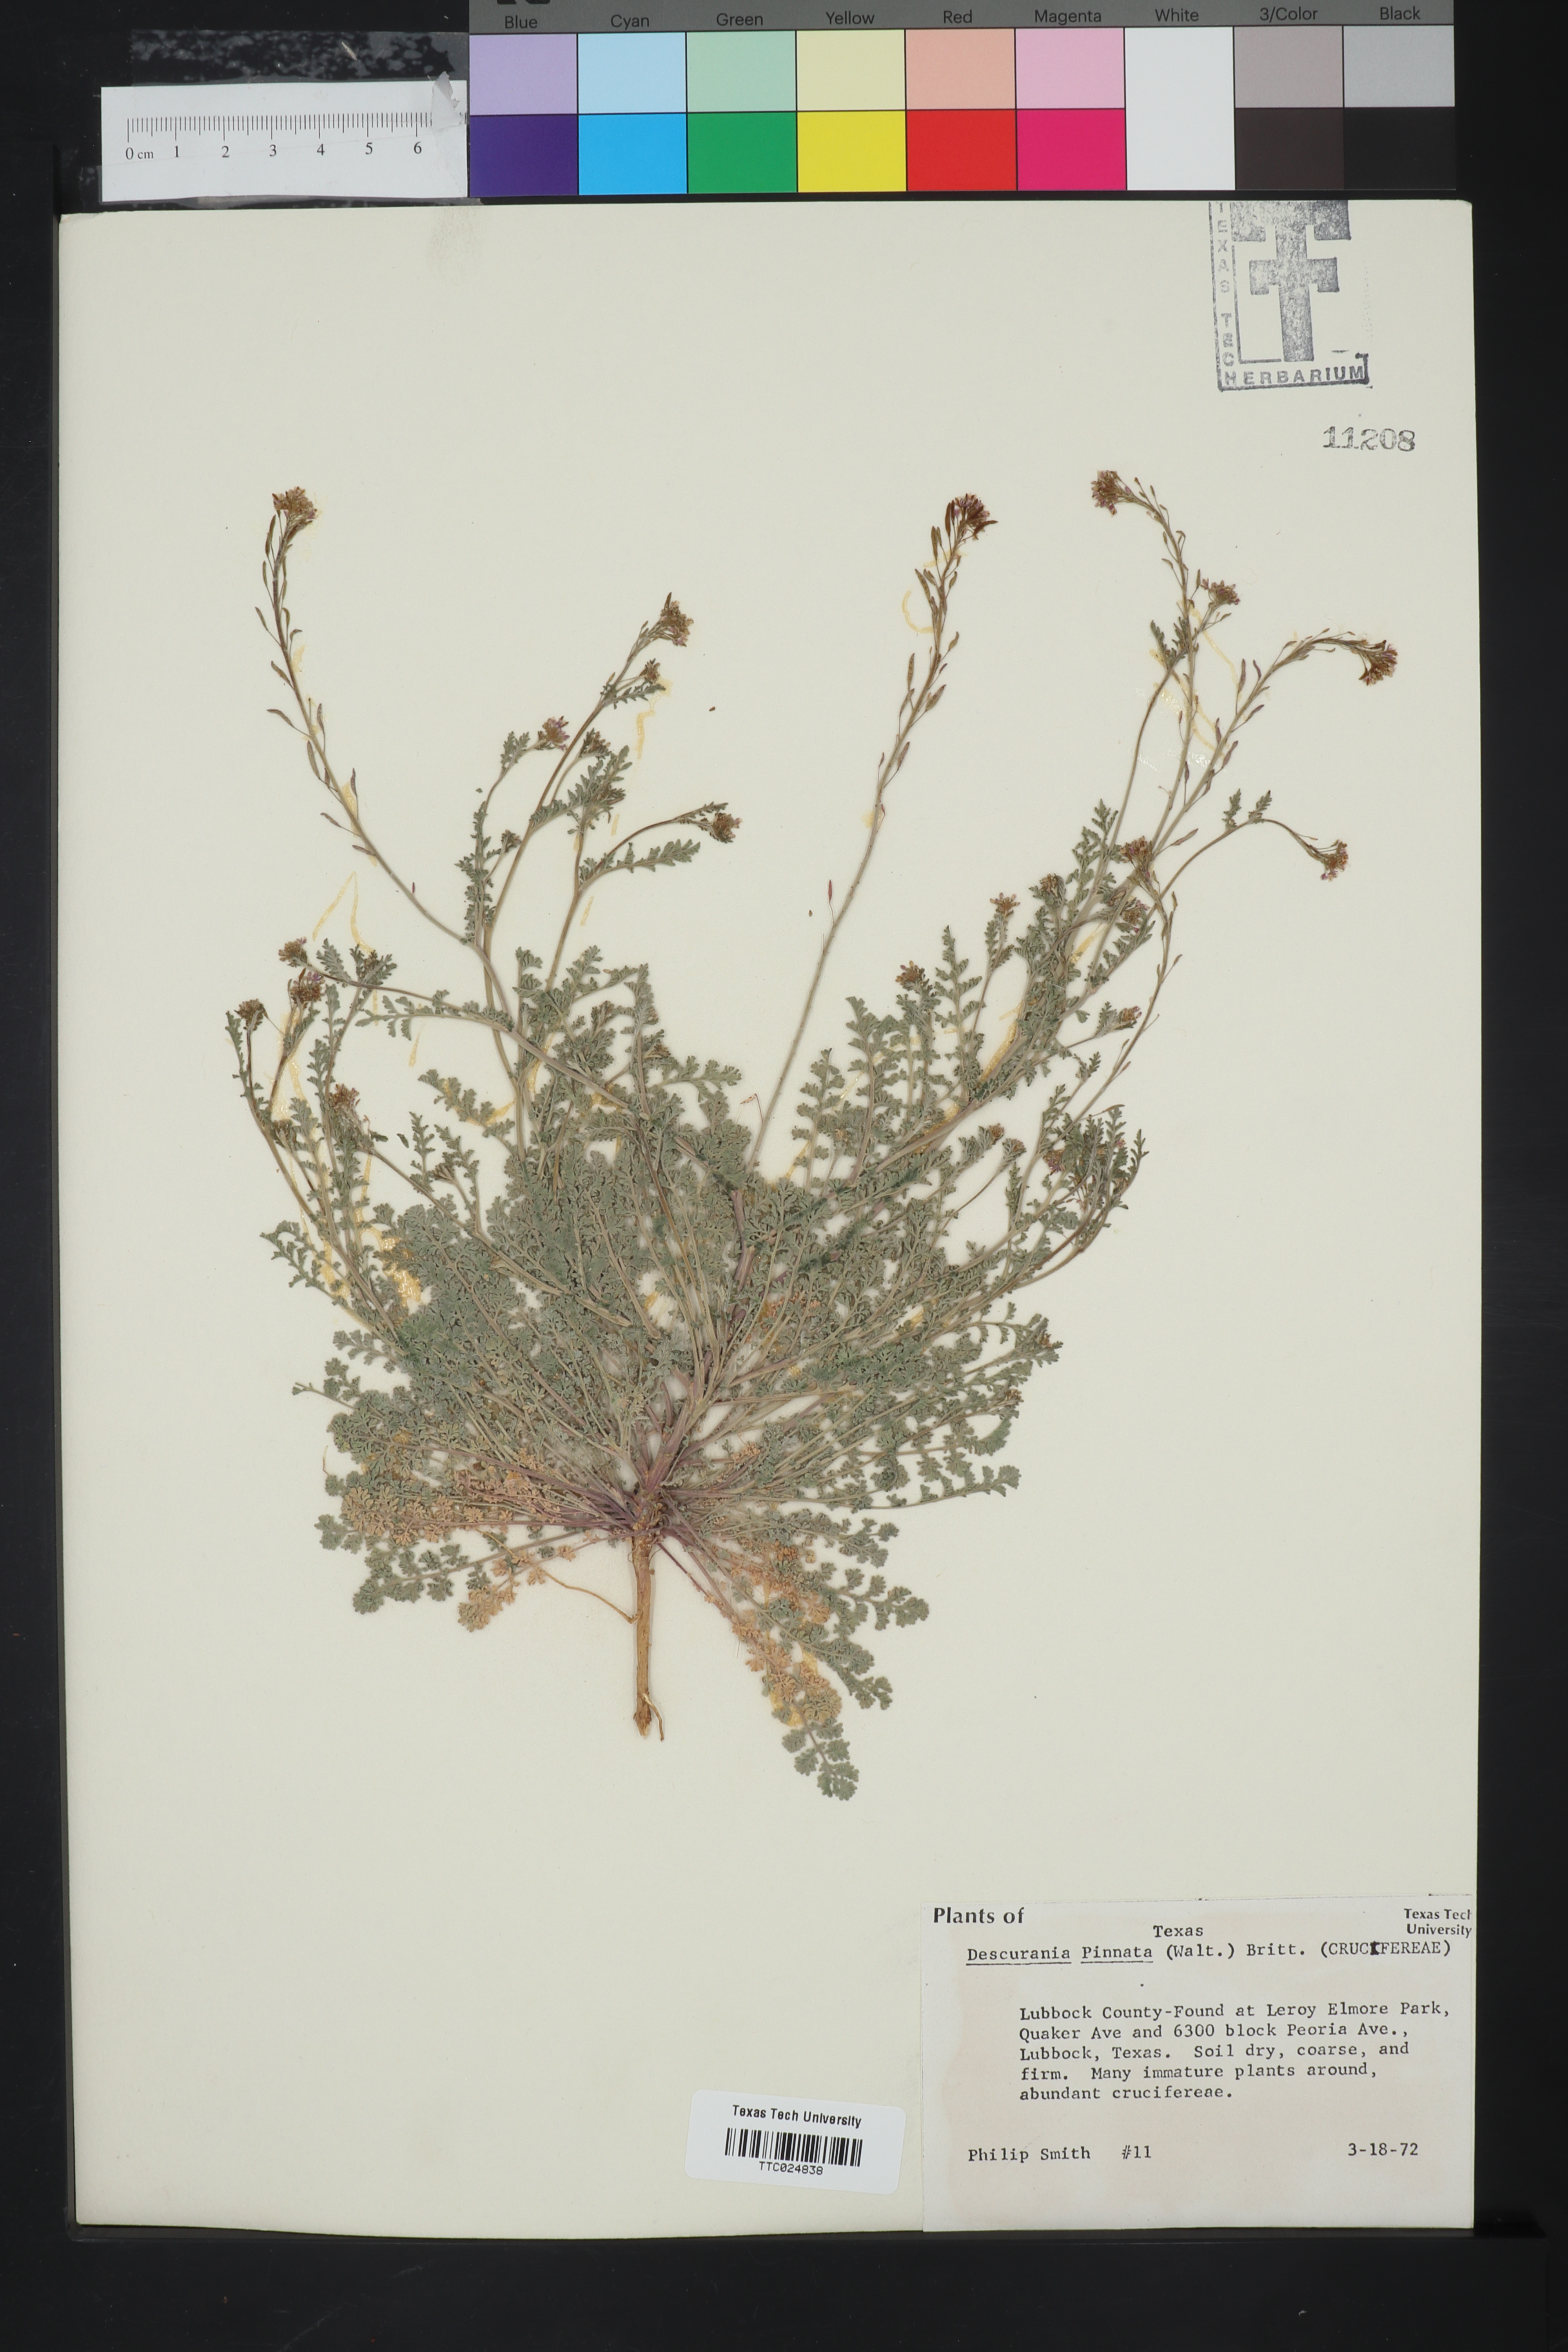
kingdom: Plantae
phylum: Tracheophyta
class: Magnoliopsida
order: Brassicales
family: Brassicaceae
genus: Descurainia
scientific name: Descurainia pinnata
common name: Western tansy mustard
